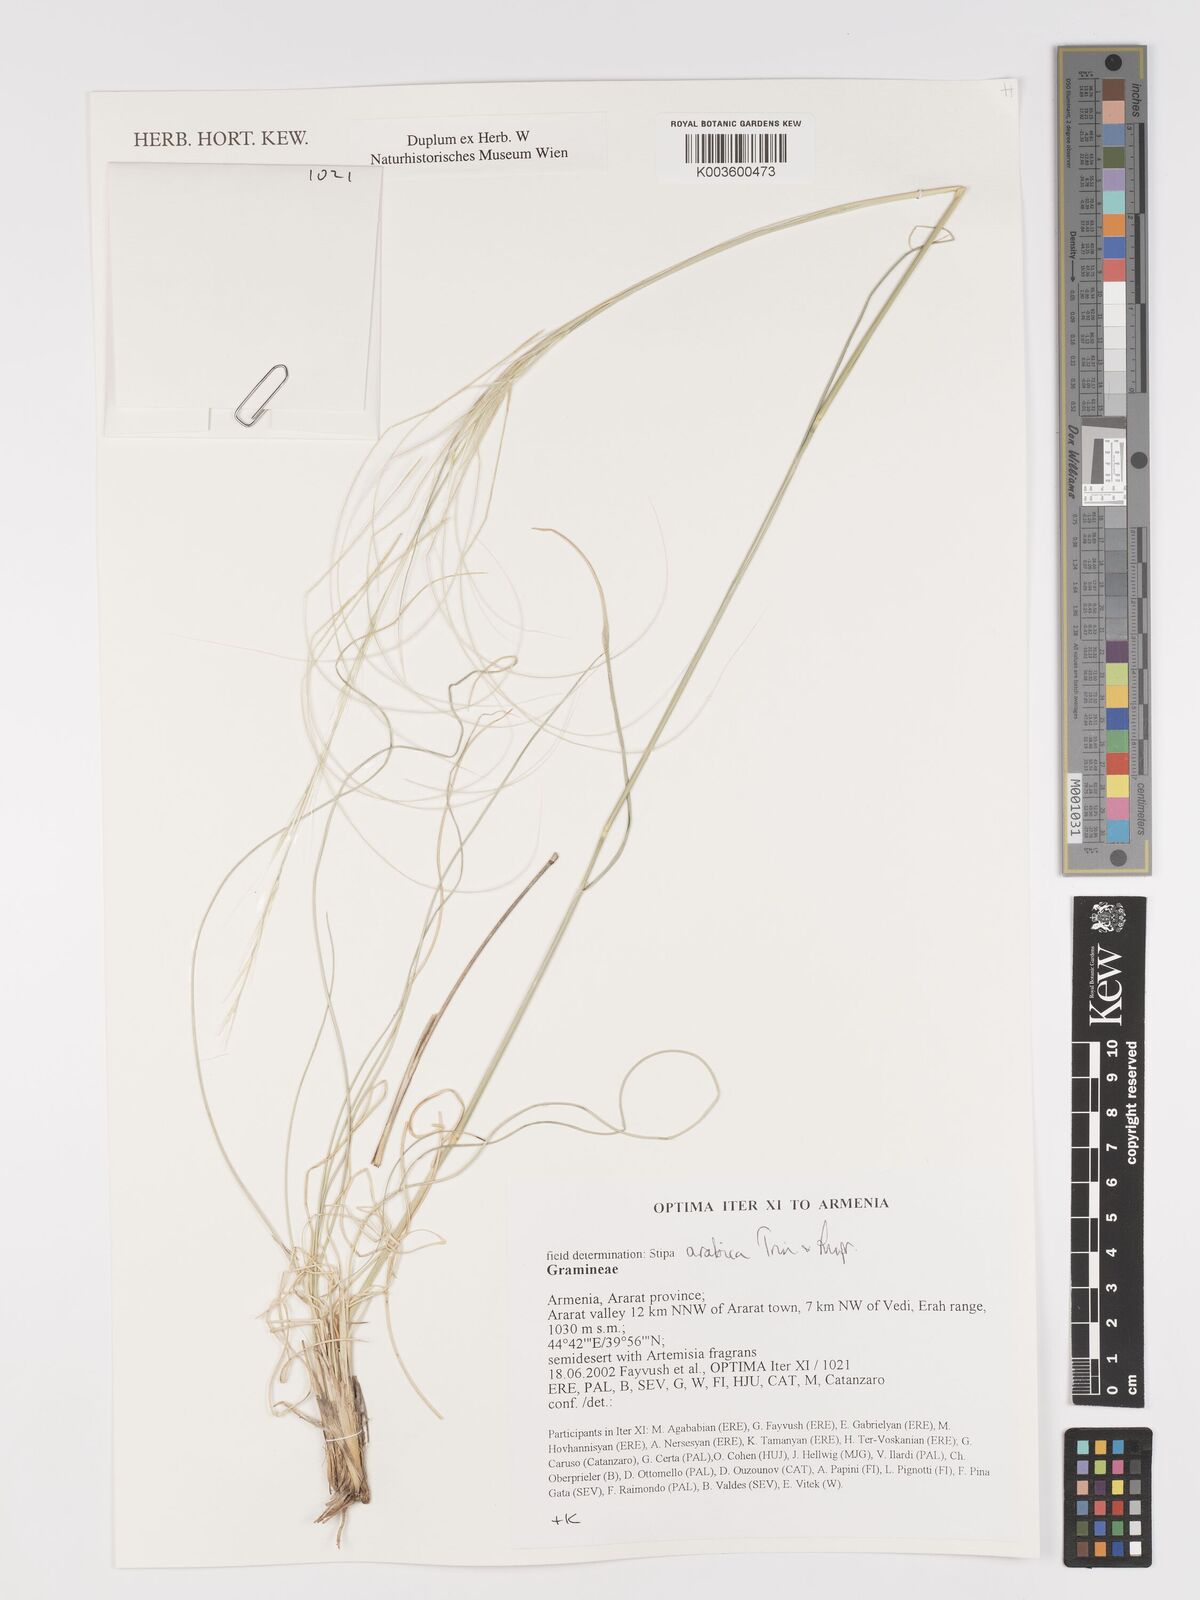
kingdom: Plantae
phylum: Tracheophyta
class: Liliopsida
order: Poales
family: Poaceae
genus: Stipa
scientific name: Stipa arabica
